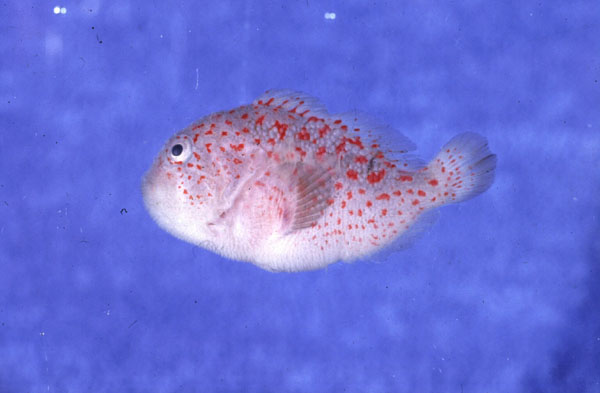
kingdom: Animalia
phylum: Chordata
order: Scorpaeniformes
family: Scorpaenidae
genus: Caracanthus
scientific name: Caracanthus madagascariensis
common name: Spotted coral croucher
